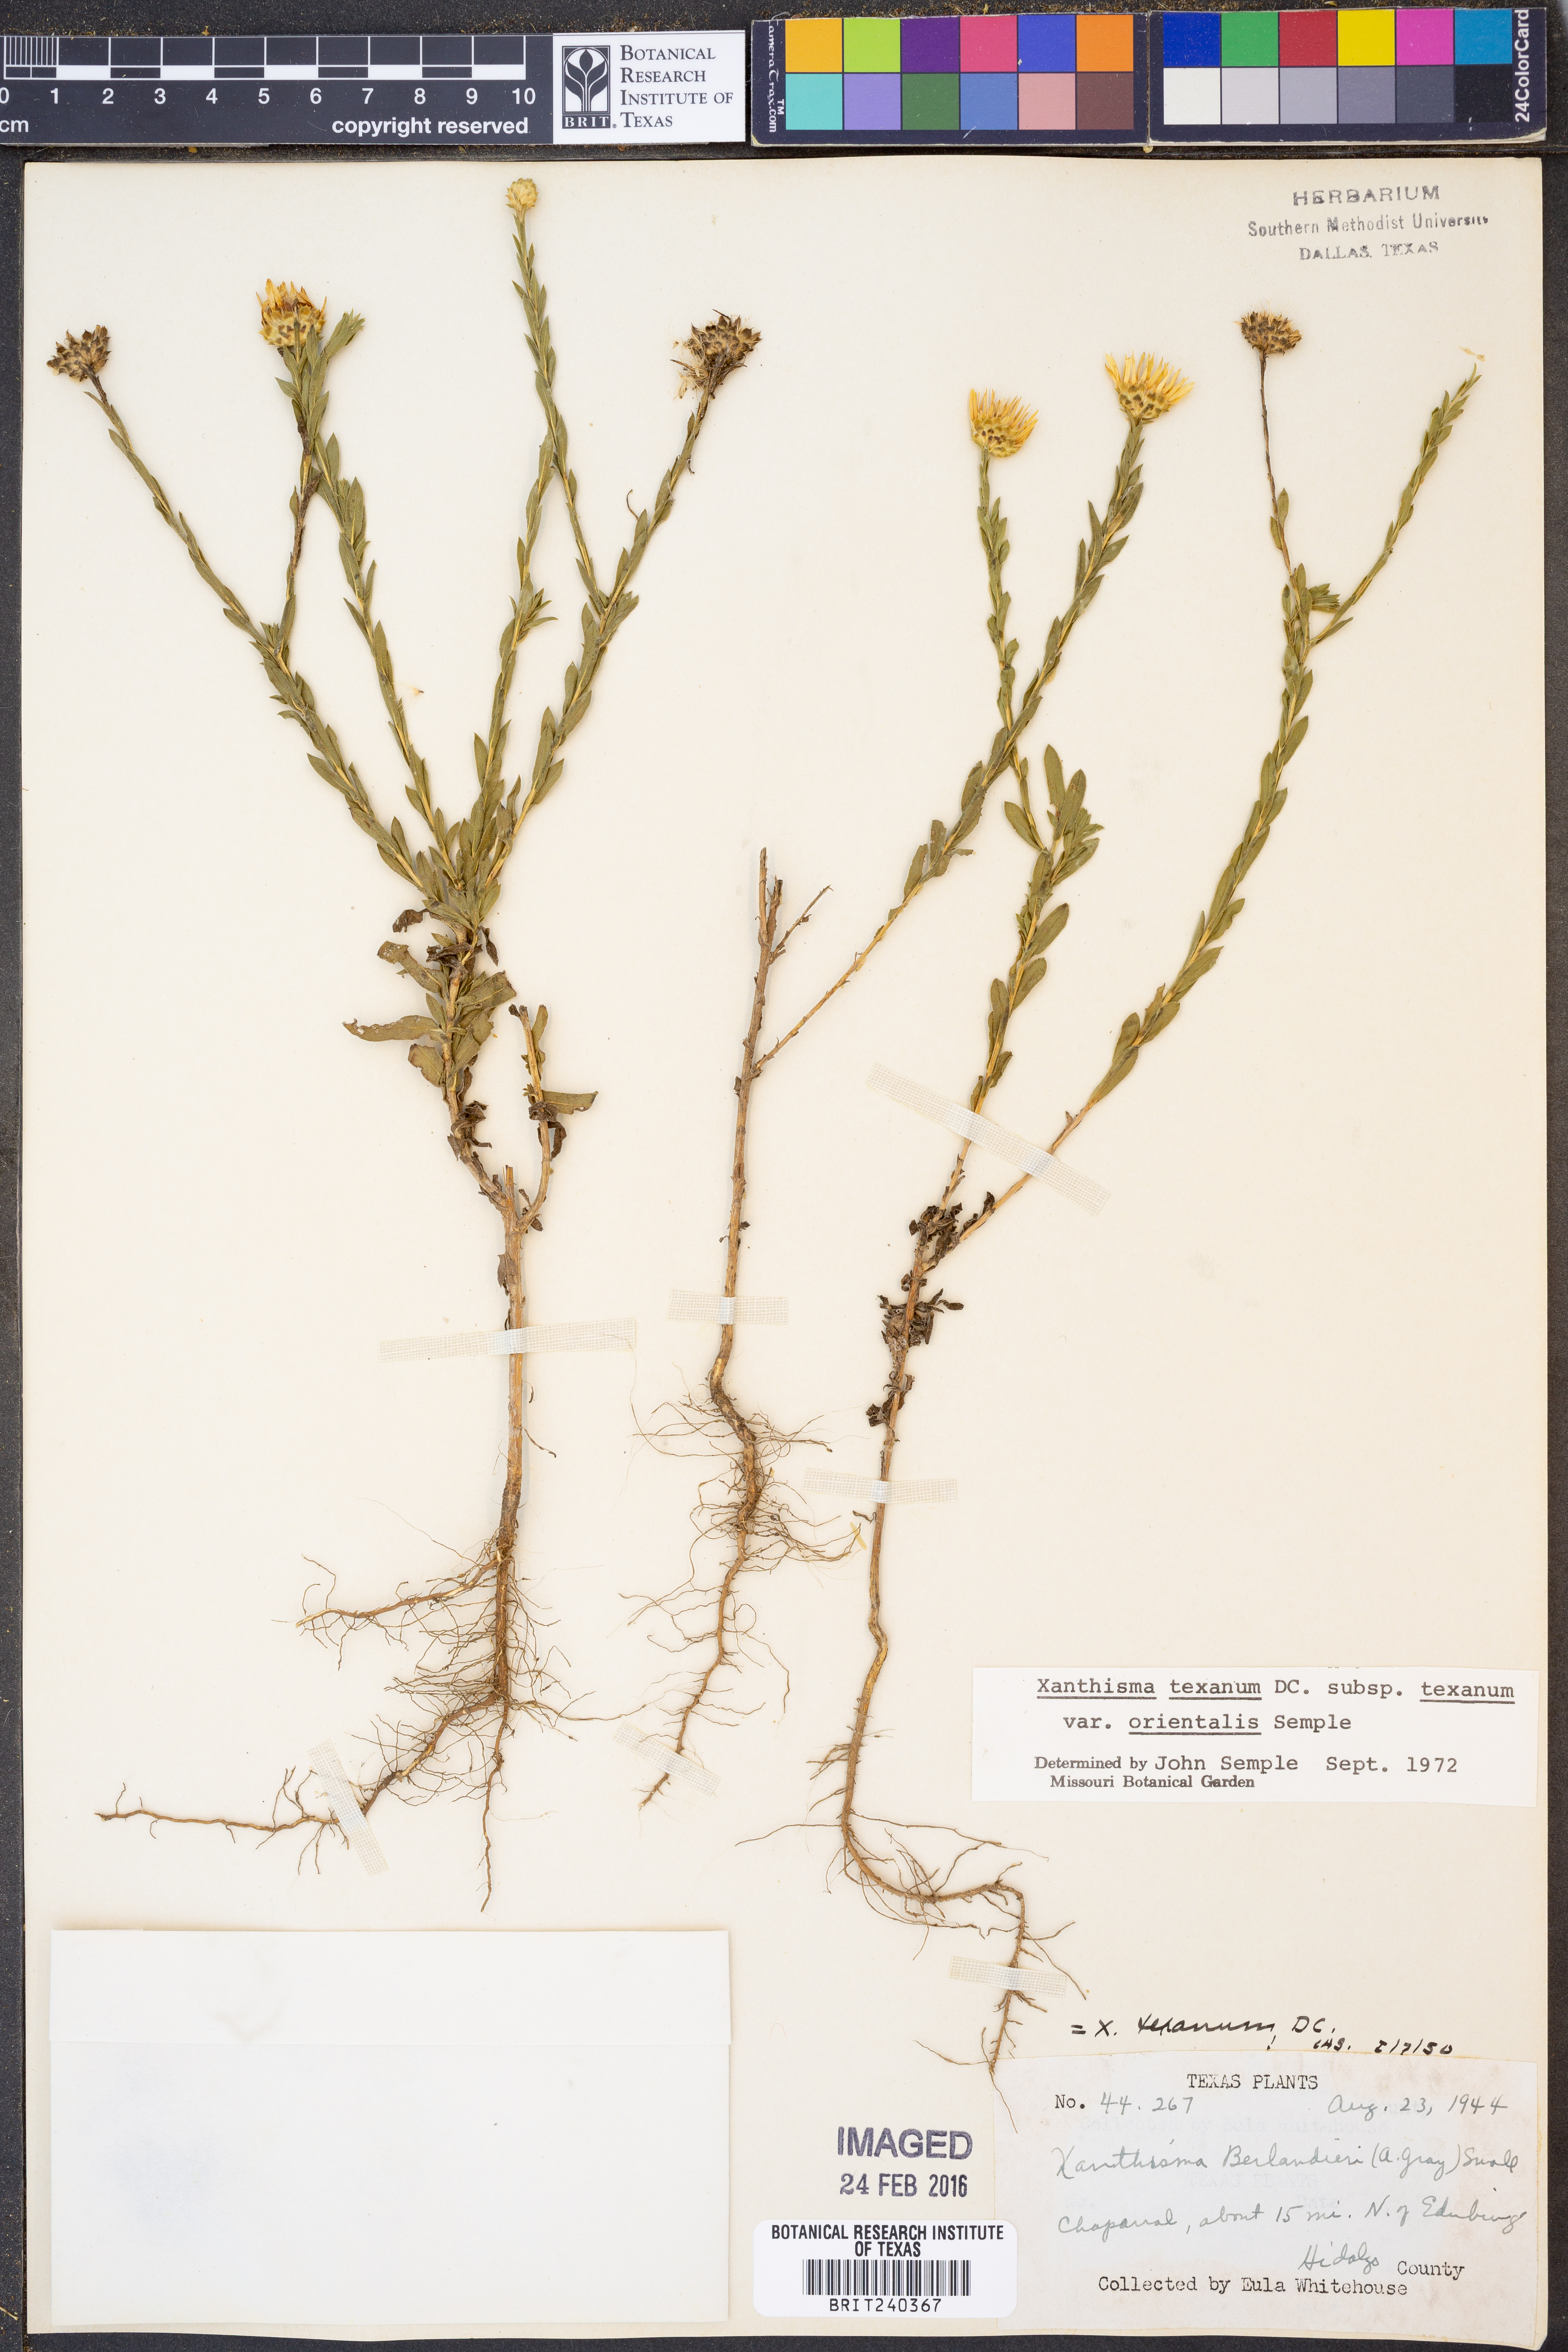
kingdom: Plantae
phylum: Tracheophyta
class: Magnoliopsida
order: Asterales
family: Asteraceae
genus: Xanthisma
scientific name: Xanthisma texanum
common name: Texas sleepy daisy
